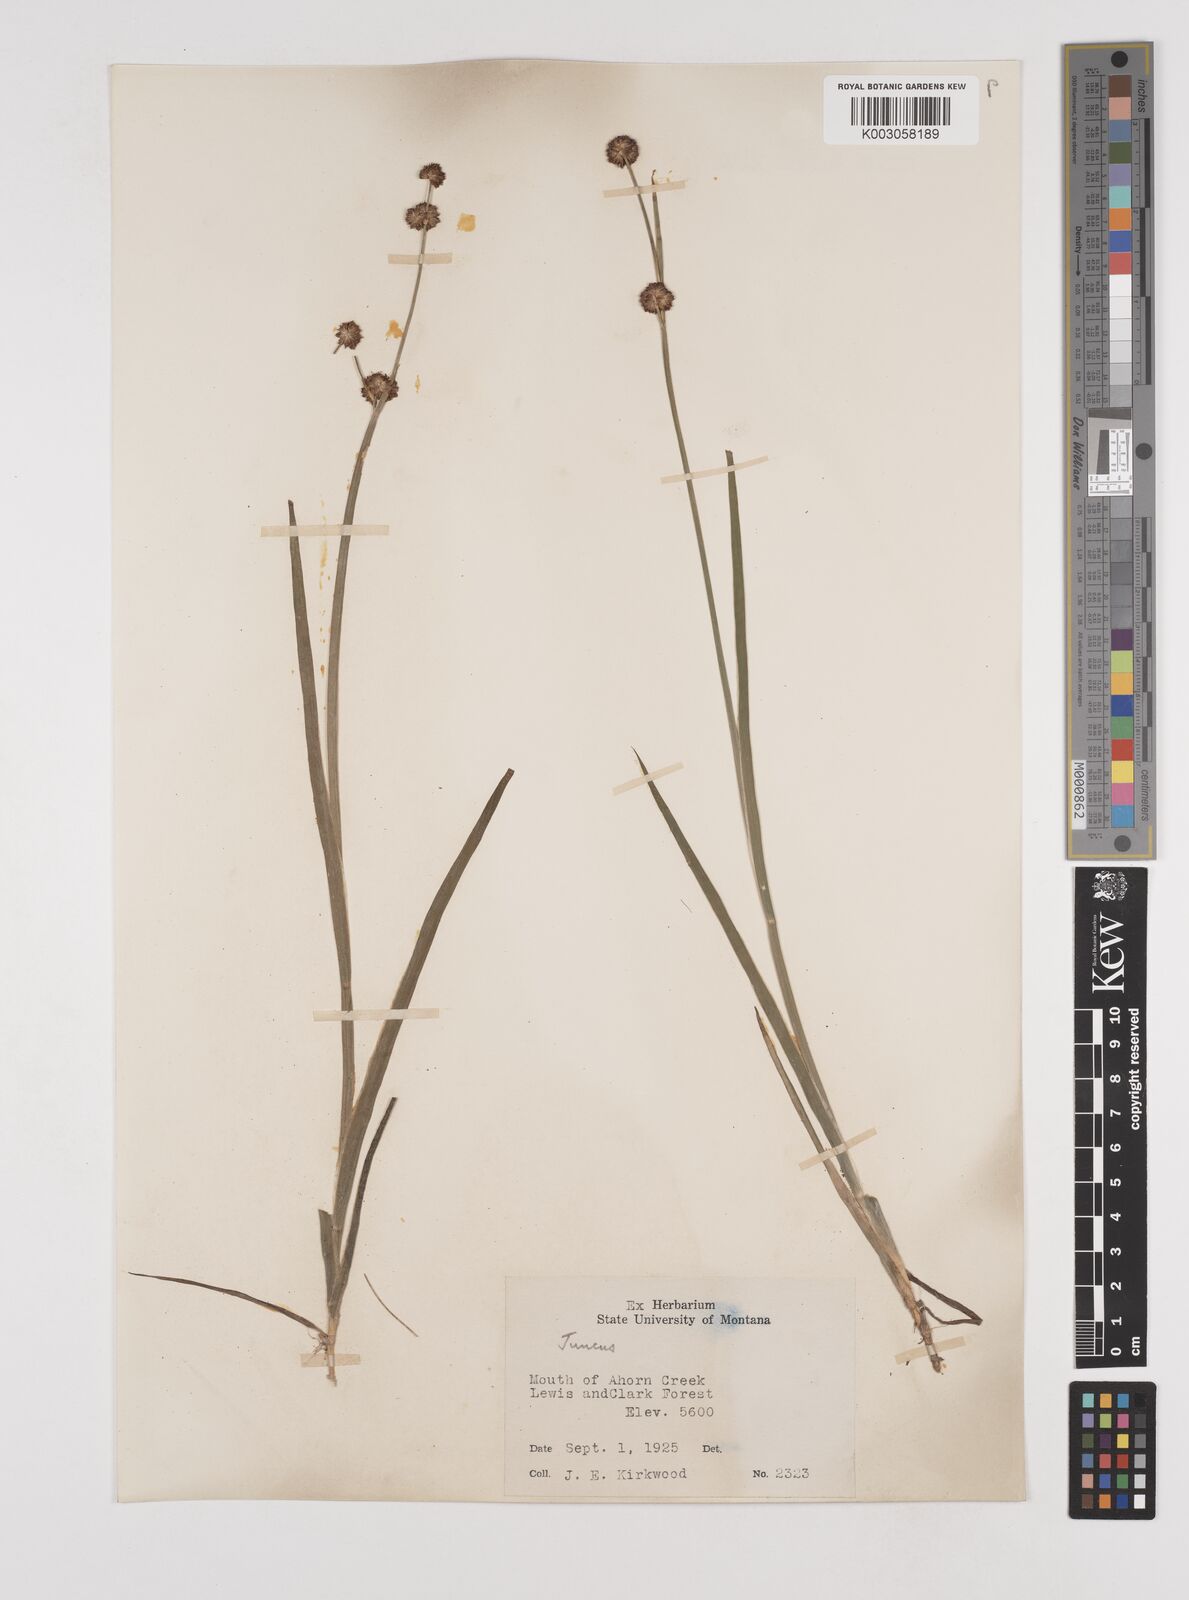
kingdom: Plantae
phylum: Tracheophyta
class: Liliopsida
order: Poales
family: Juncaceae
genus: Juncus
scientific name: Juncus
